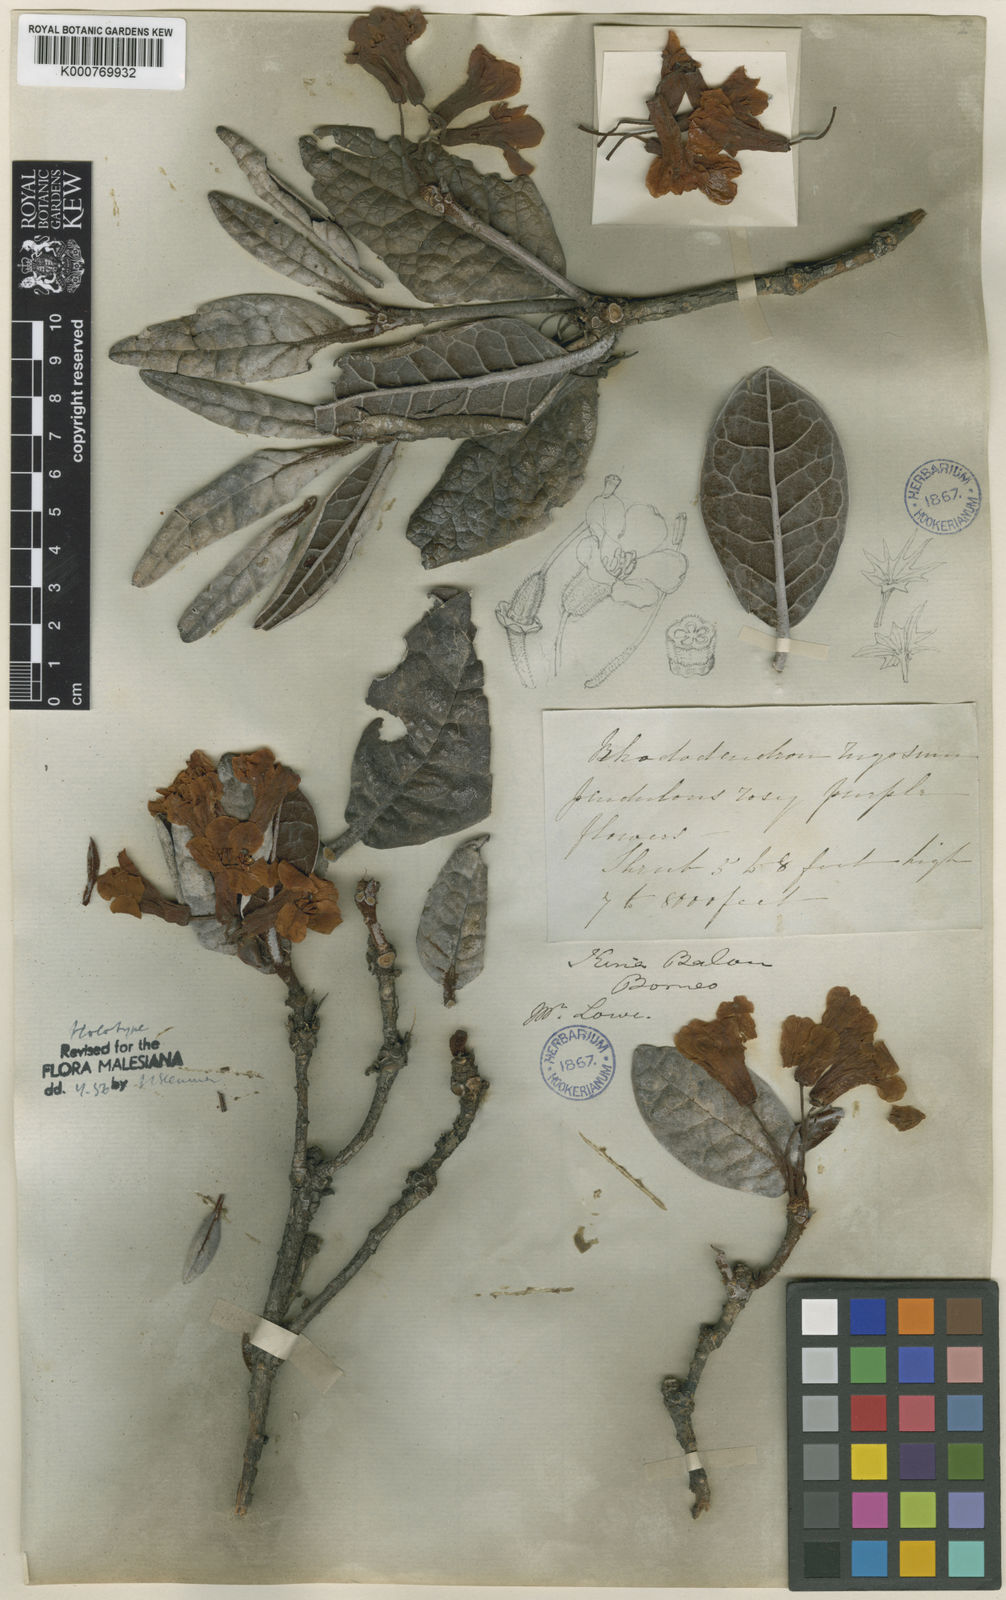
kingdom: Plantae
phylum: Tracheophyta
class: Magnoliopsida
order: Ericales
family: Ericaceae
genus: Rhododendron
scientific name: Rhododendron rugosum
